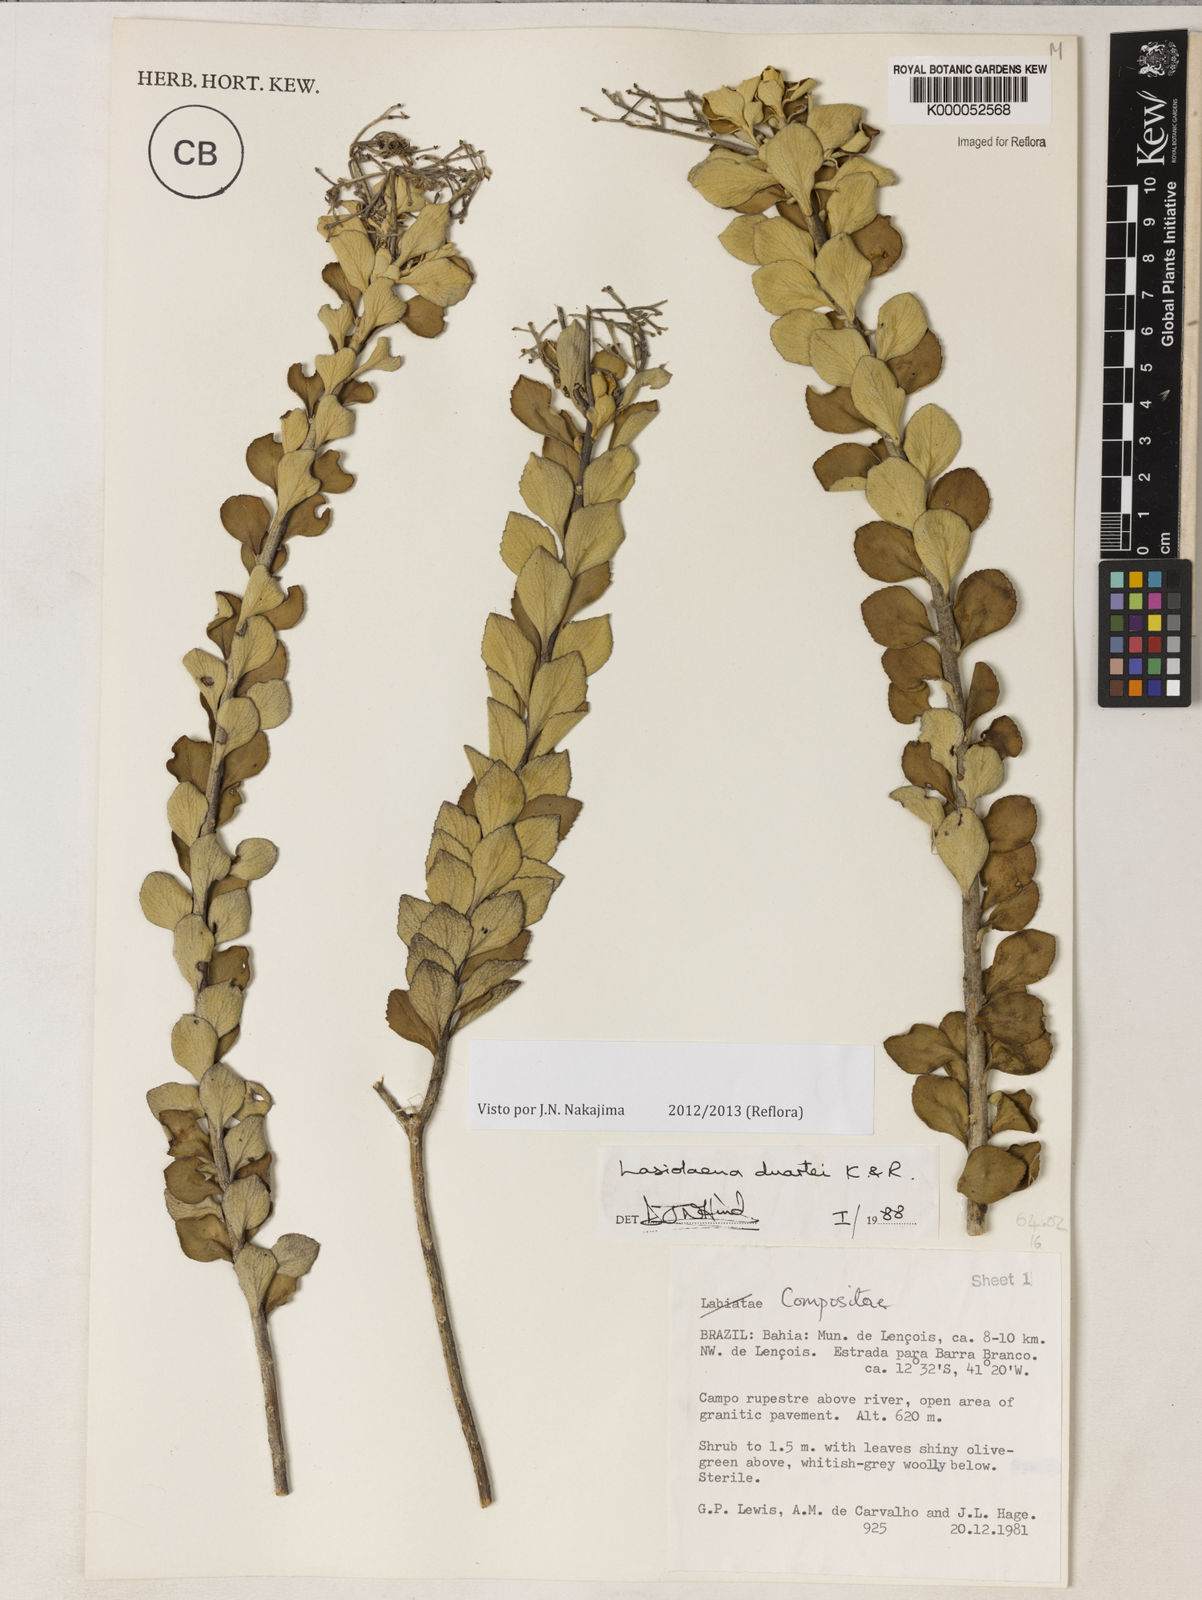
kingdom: Plantae
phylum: Tracheophyta
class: Magnoliopsida
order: Asterales
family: Asteraceae
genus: Lasiolaena
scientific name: Lasiolaena duartei
